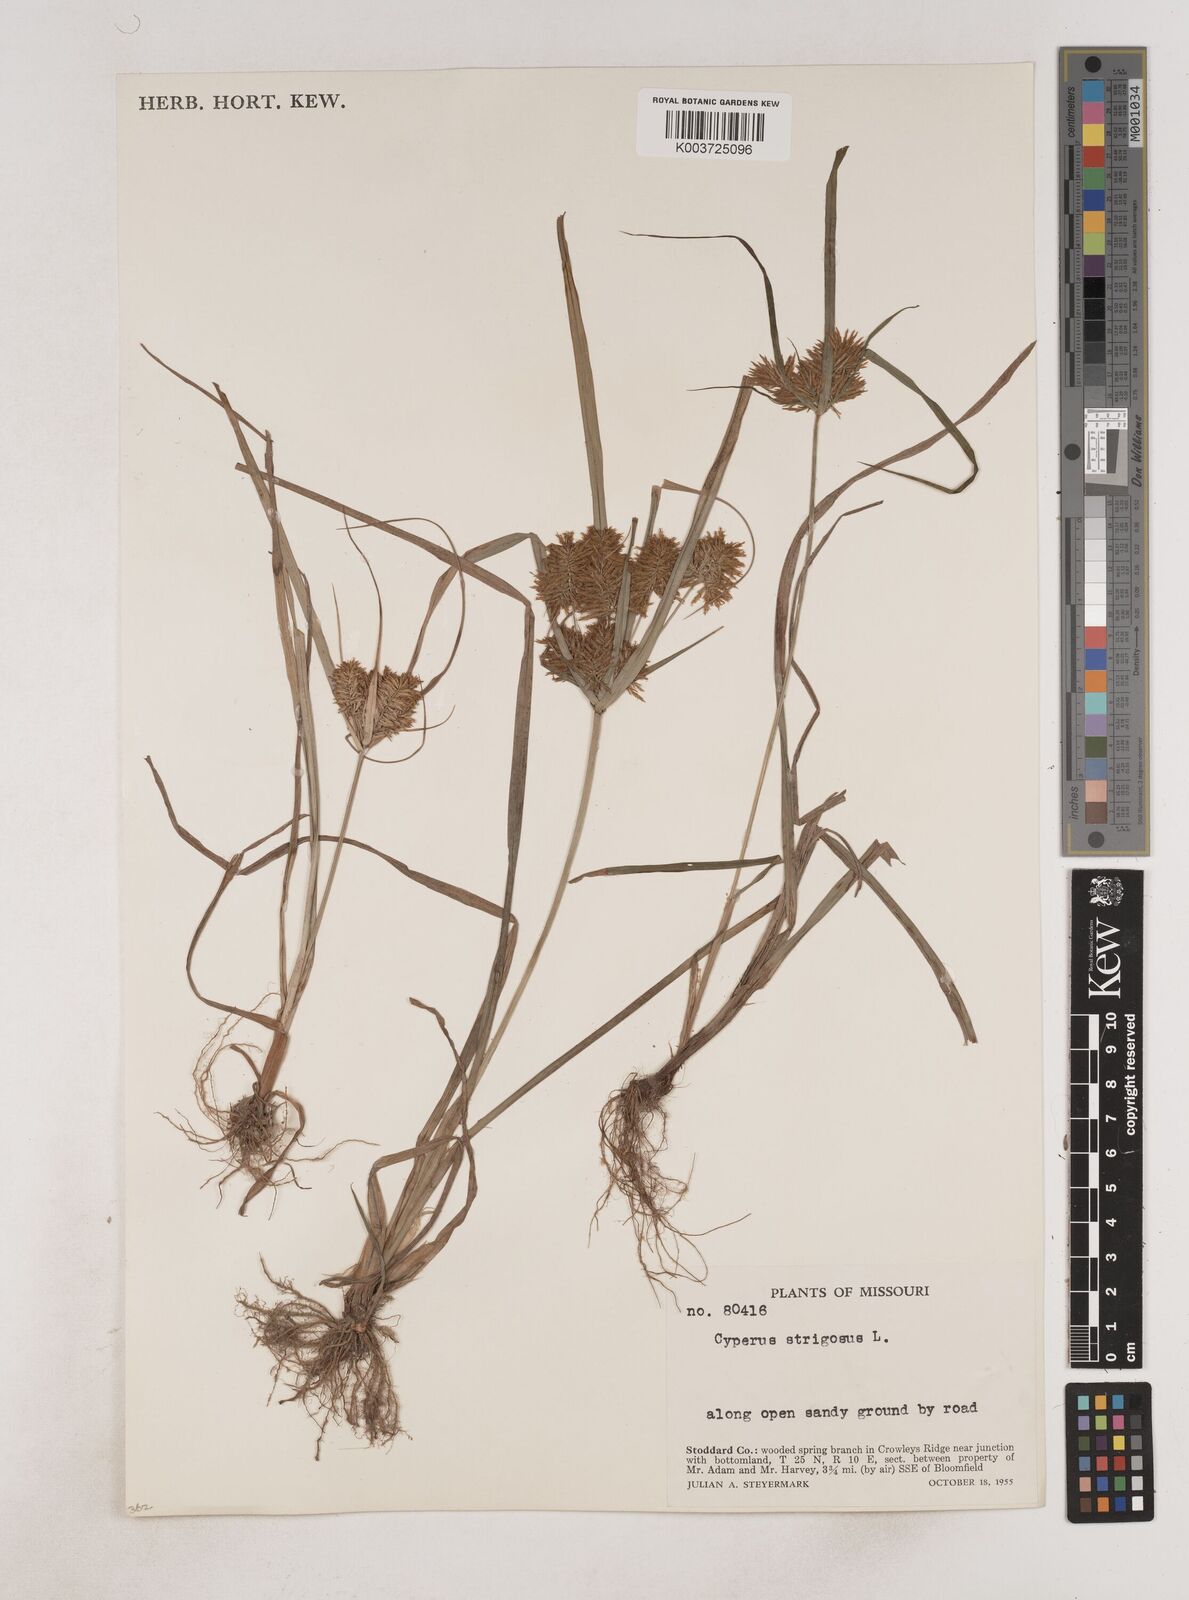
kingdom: Plantae
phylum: Tracheophyta
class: Liliopsida
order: Poales
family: Cyperaceae
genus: Cyperus
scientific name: Cyperus strigosus
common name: False nutsedge
